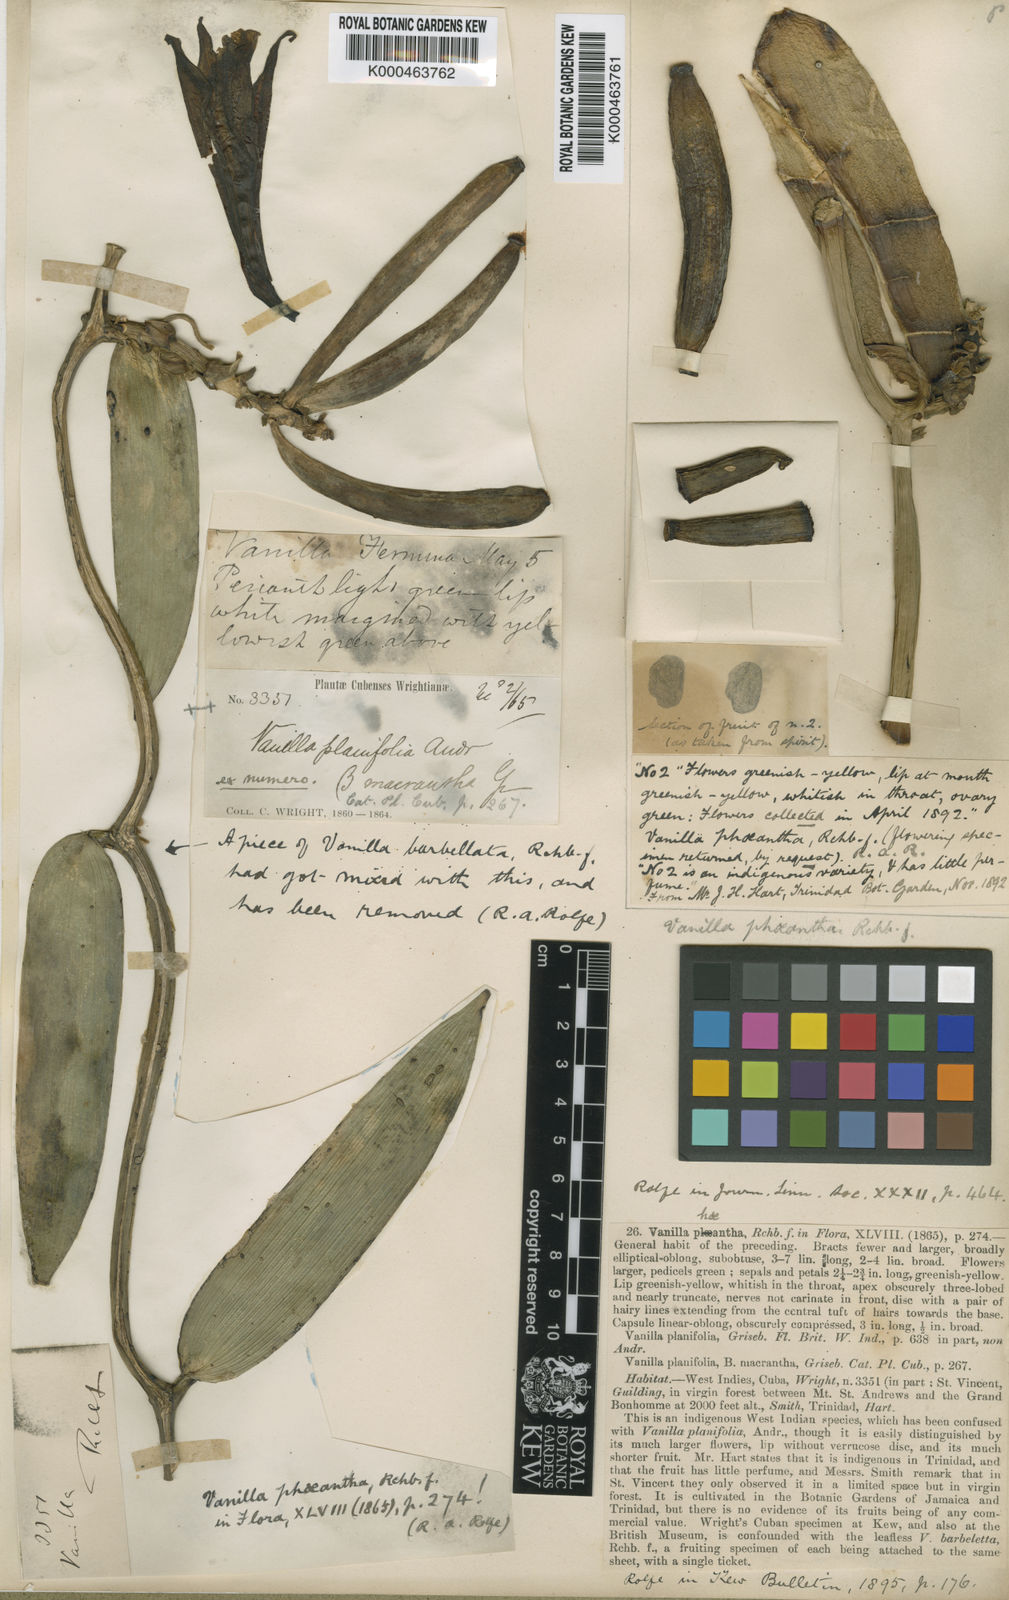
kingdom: Plantae
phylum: Tracheophyta
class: Liliopsida
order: Asparagales
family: Orchidaceae
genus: Vanilla
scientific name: Vanilla phaeantha
